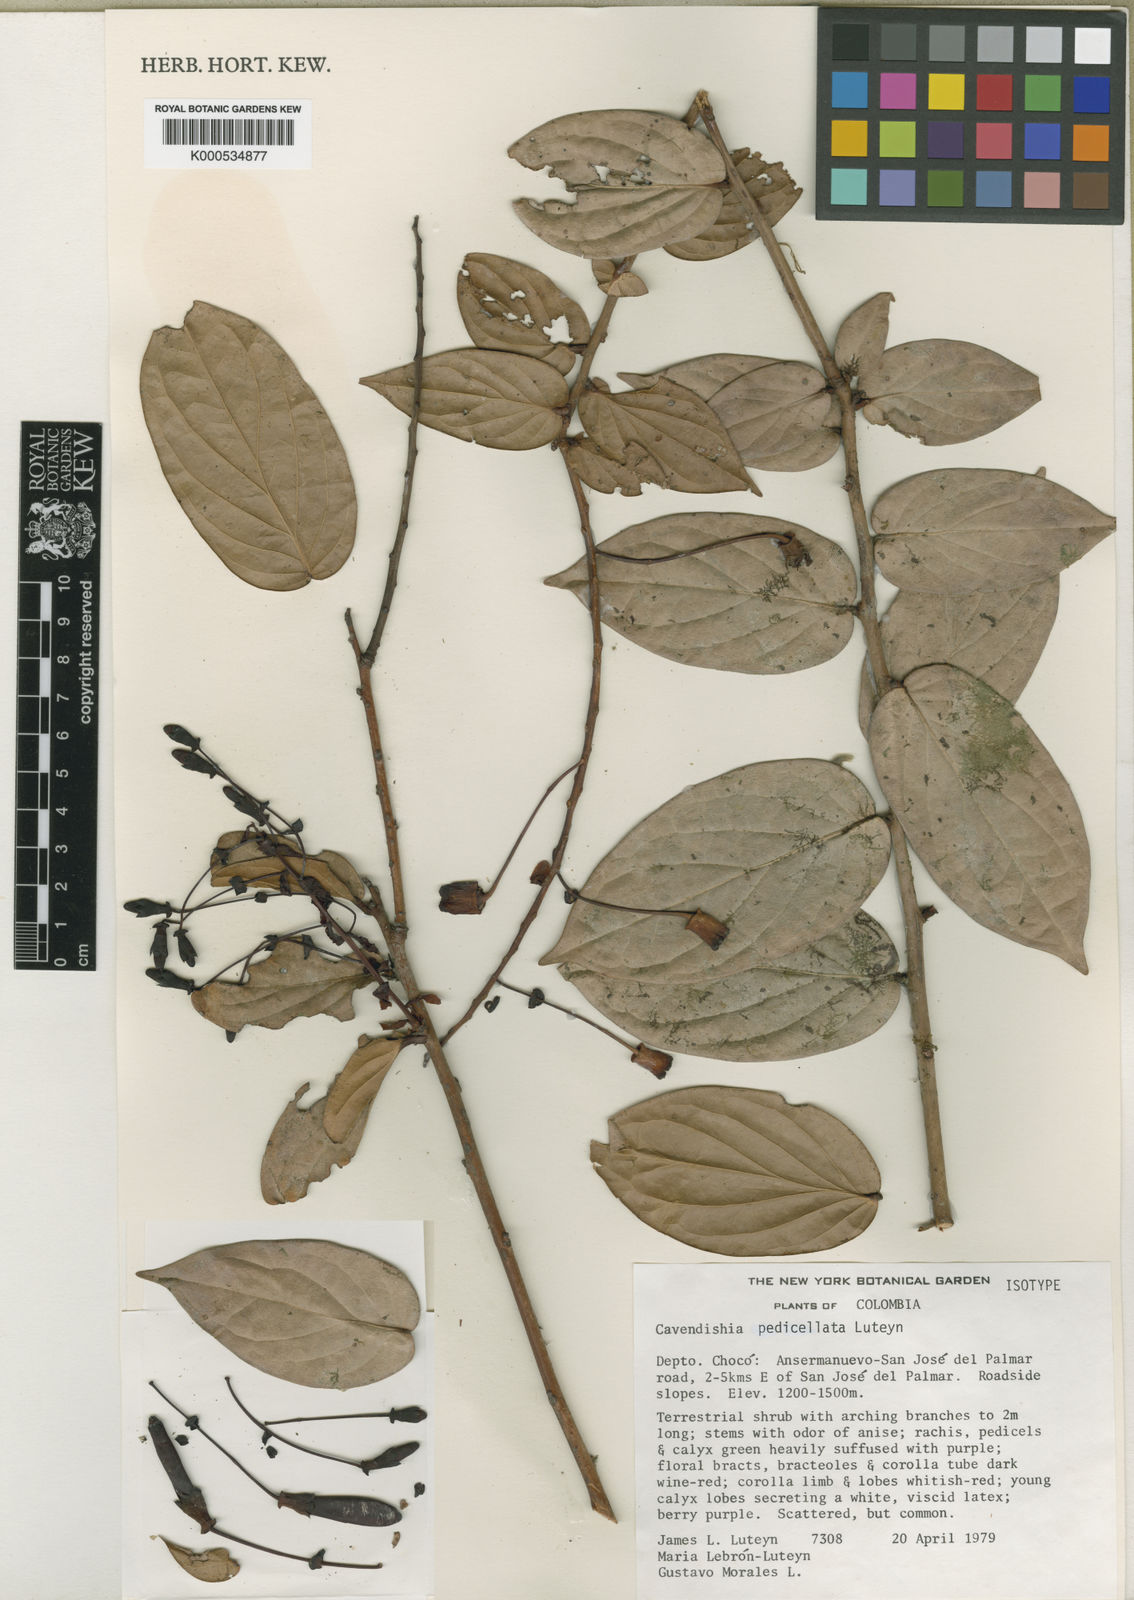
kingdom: Plantae
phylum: Tracheophyta
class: Magnoliopsida
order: Ericales
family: Ericaceae
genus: Cavendishia
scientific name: Cavendishia pedicellata
